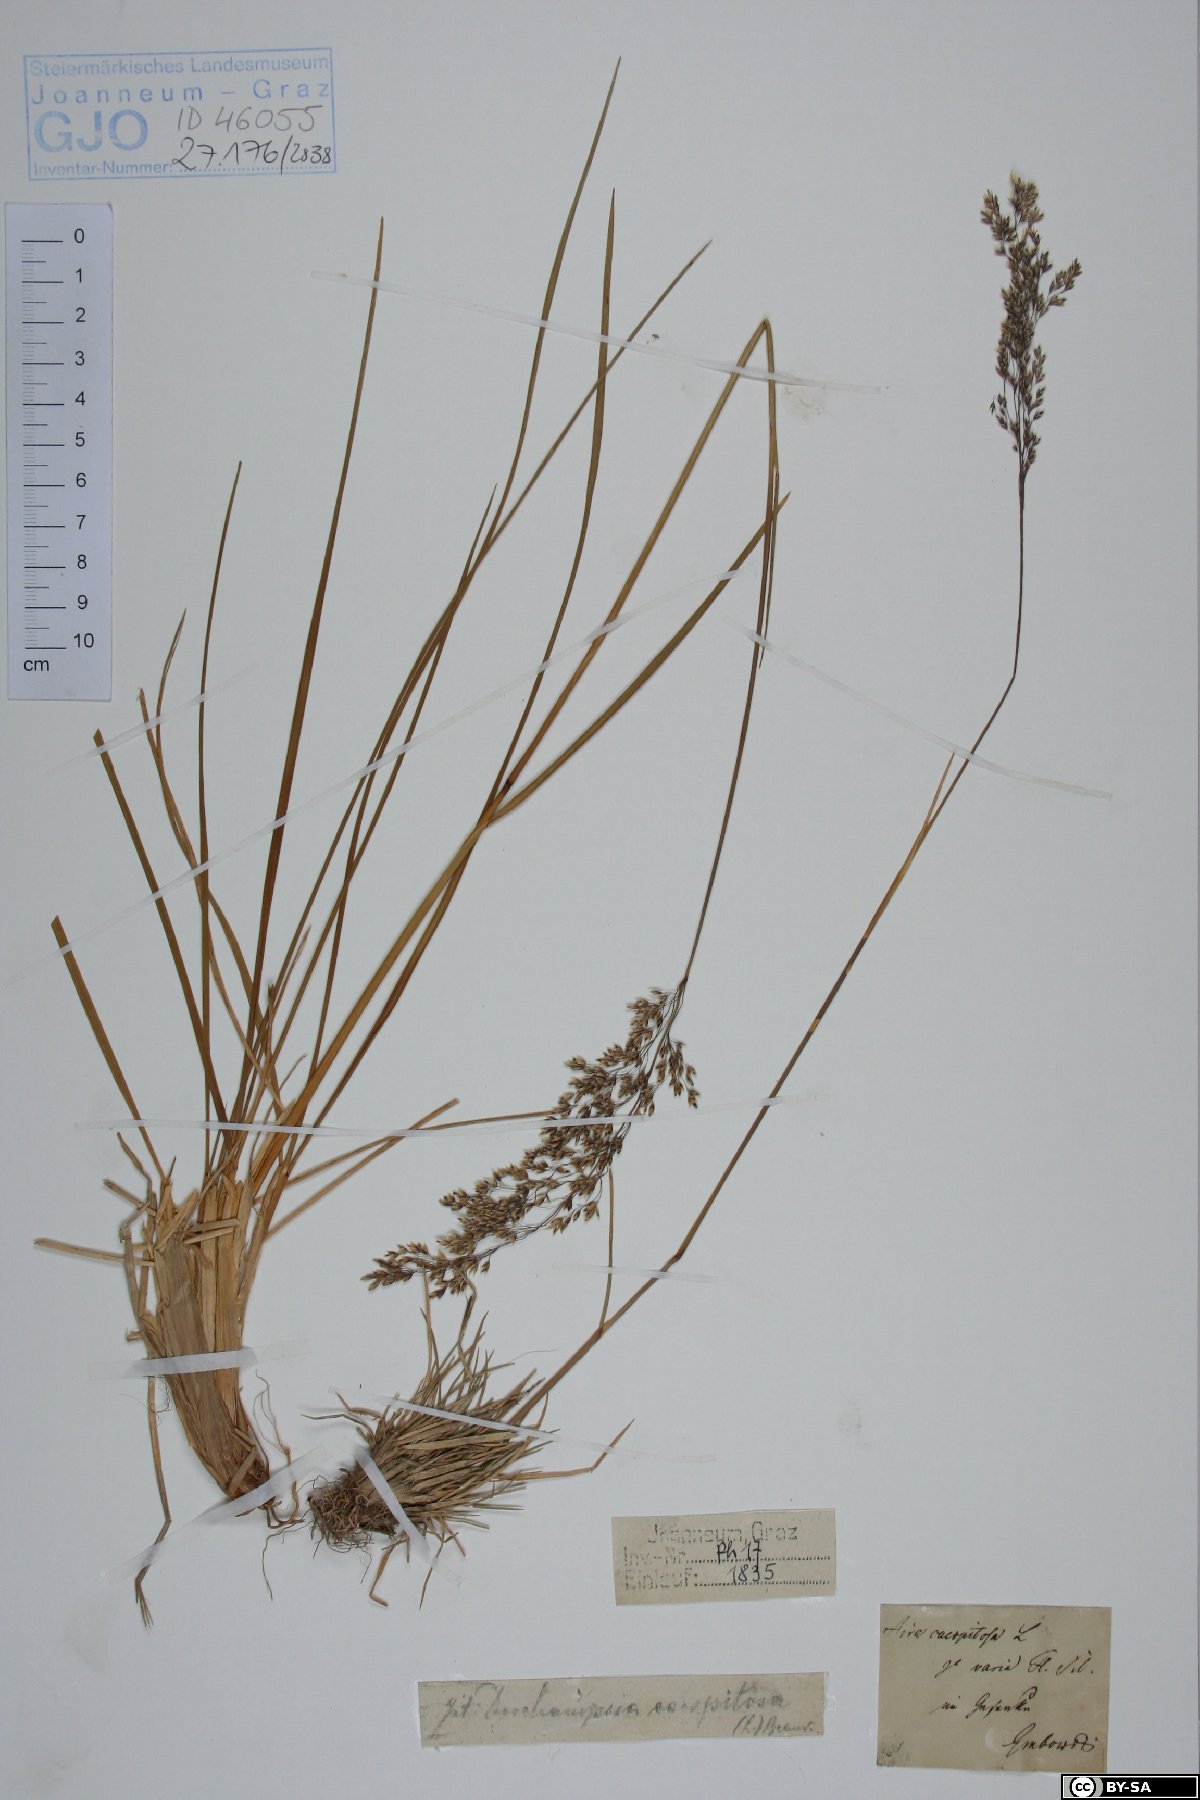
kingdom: Plantae
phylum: Tracheophyta
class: Liliopsida
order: Poales
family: Poaceae
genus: Deschampsia
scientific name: Deschampsia cespitosa
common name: Tufted hair-grass
